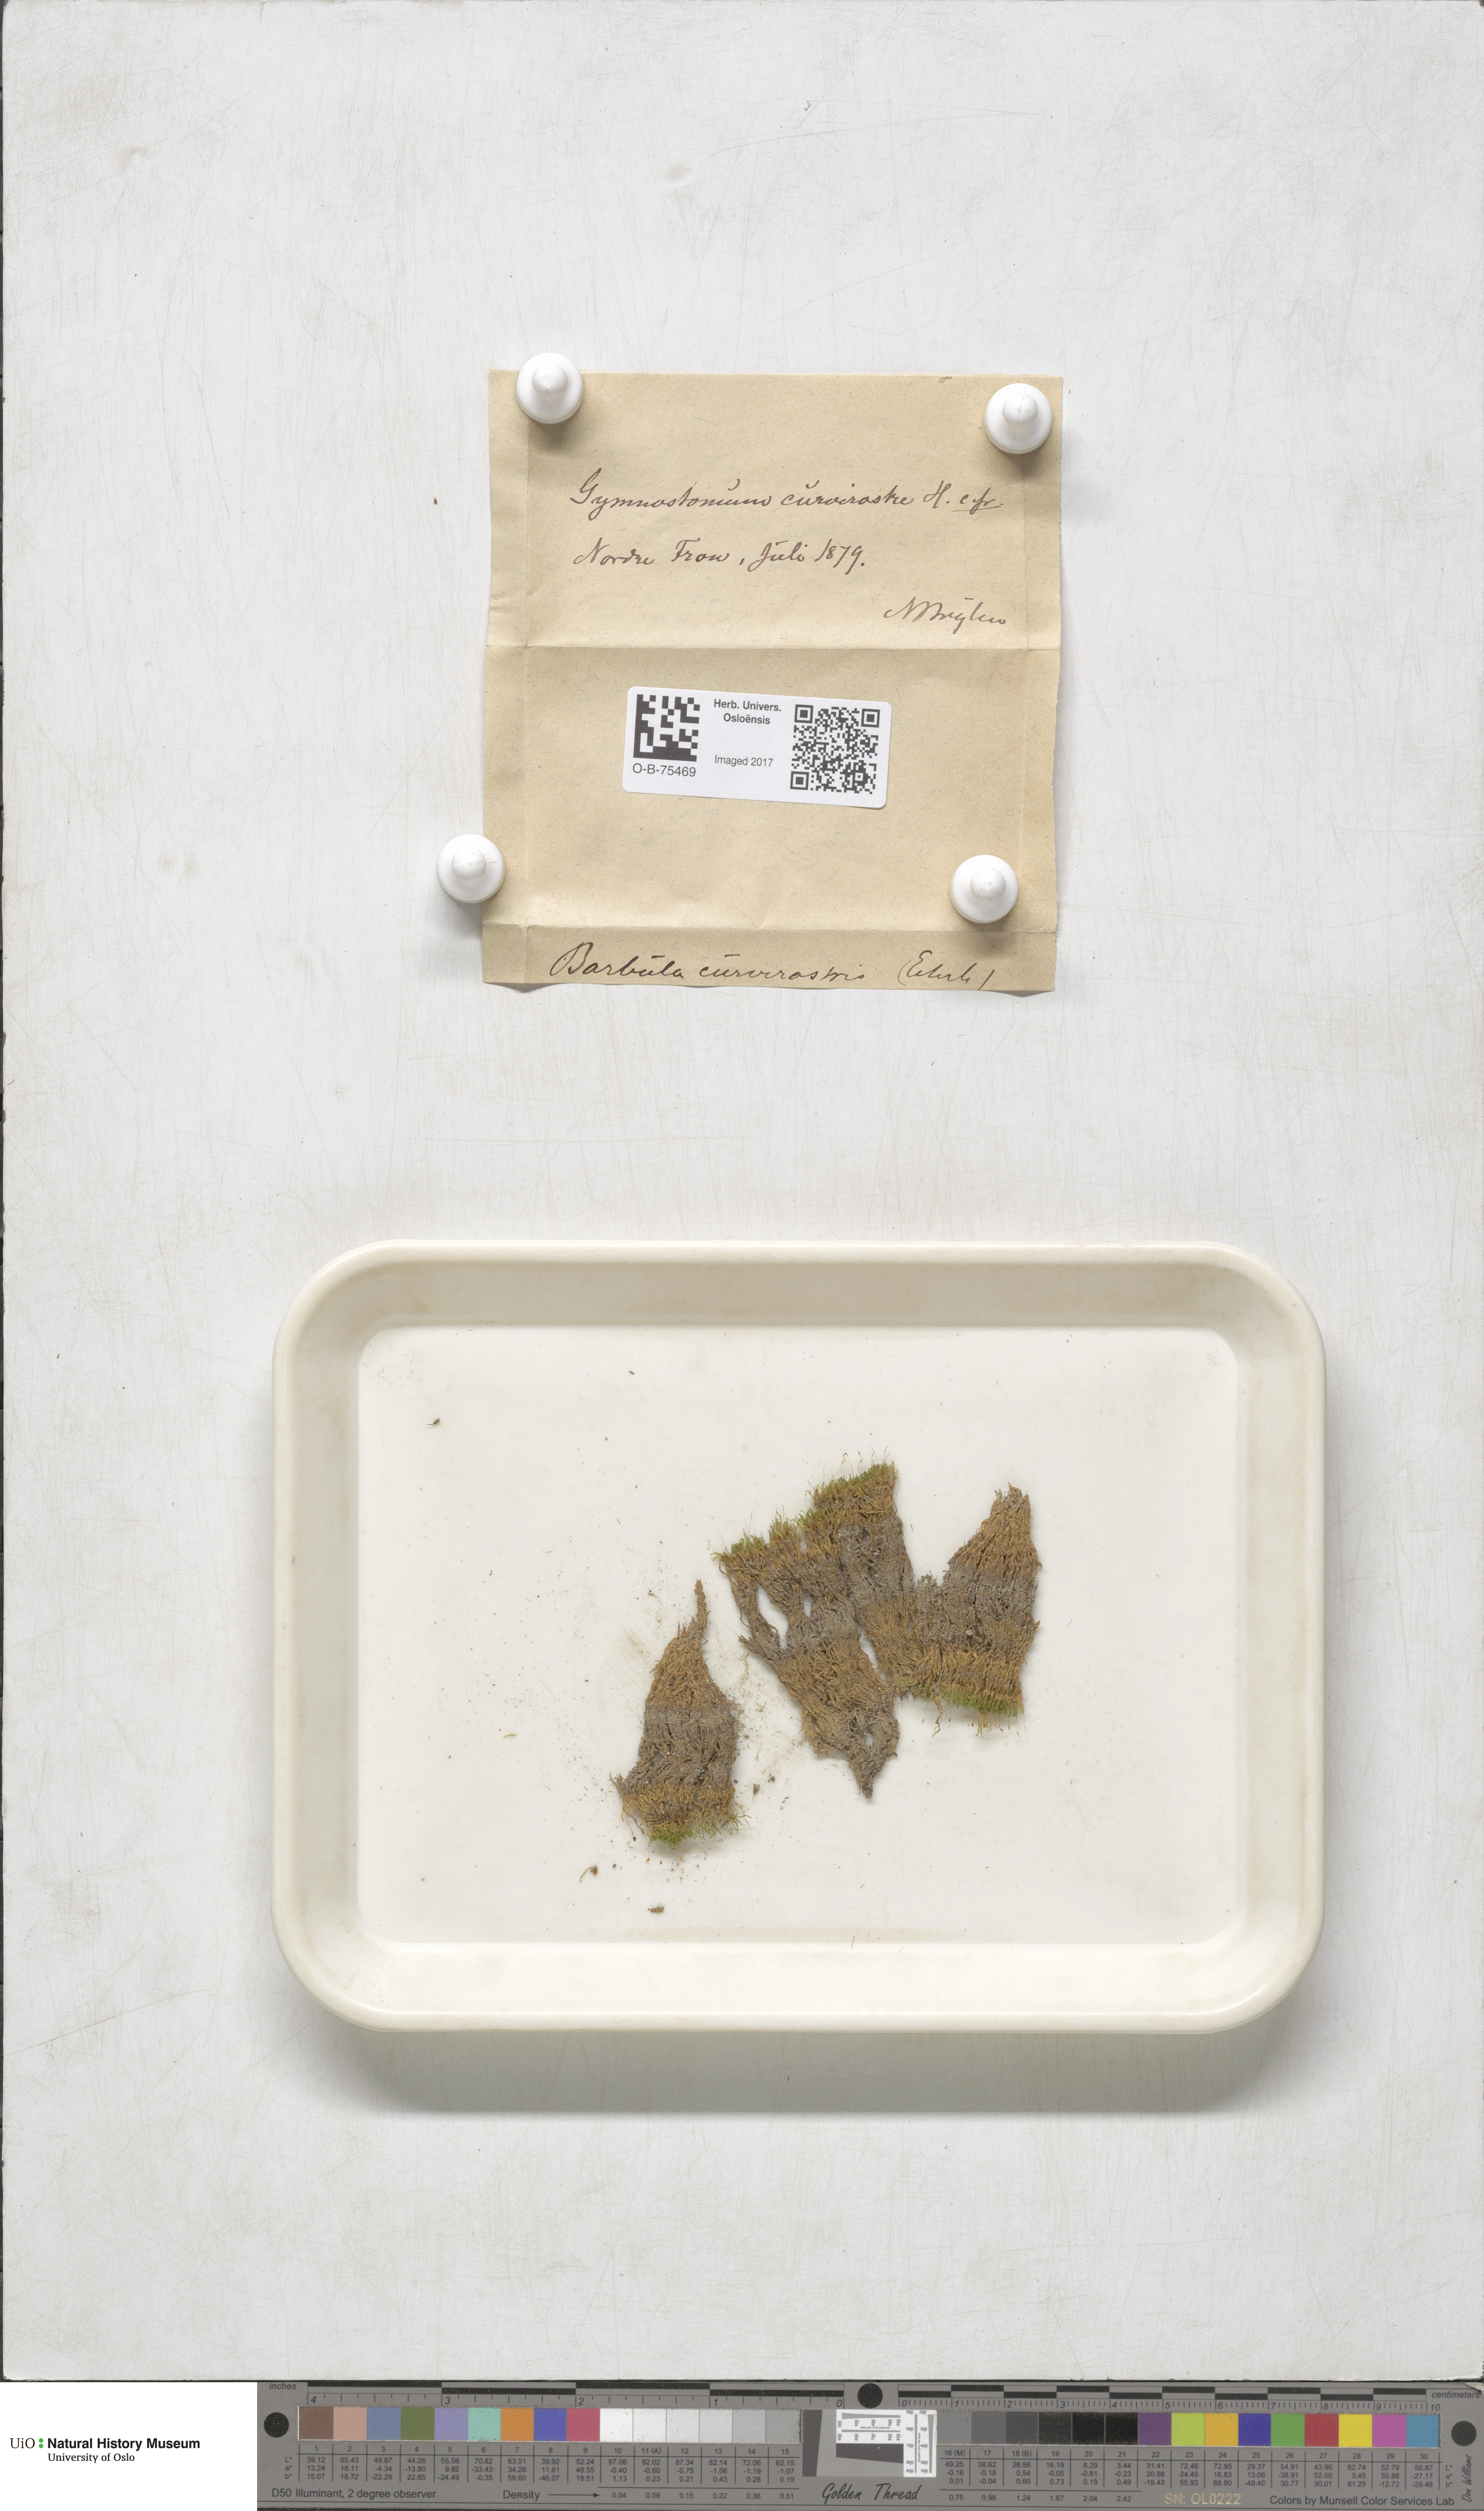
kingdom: Plantae
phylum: Bryophyta
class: Bryopsida
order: Pottiales
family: Pottiaceae
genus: Hymenostylium
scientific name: Hymenostylium recurvirostrum
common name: Hook-beak tufa-moss
